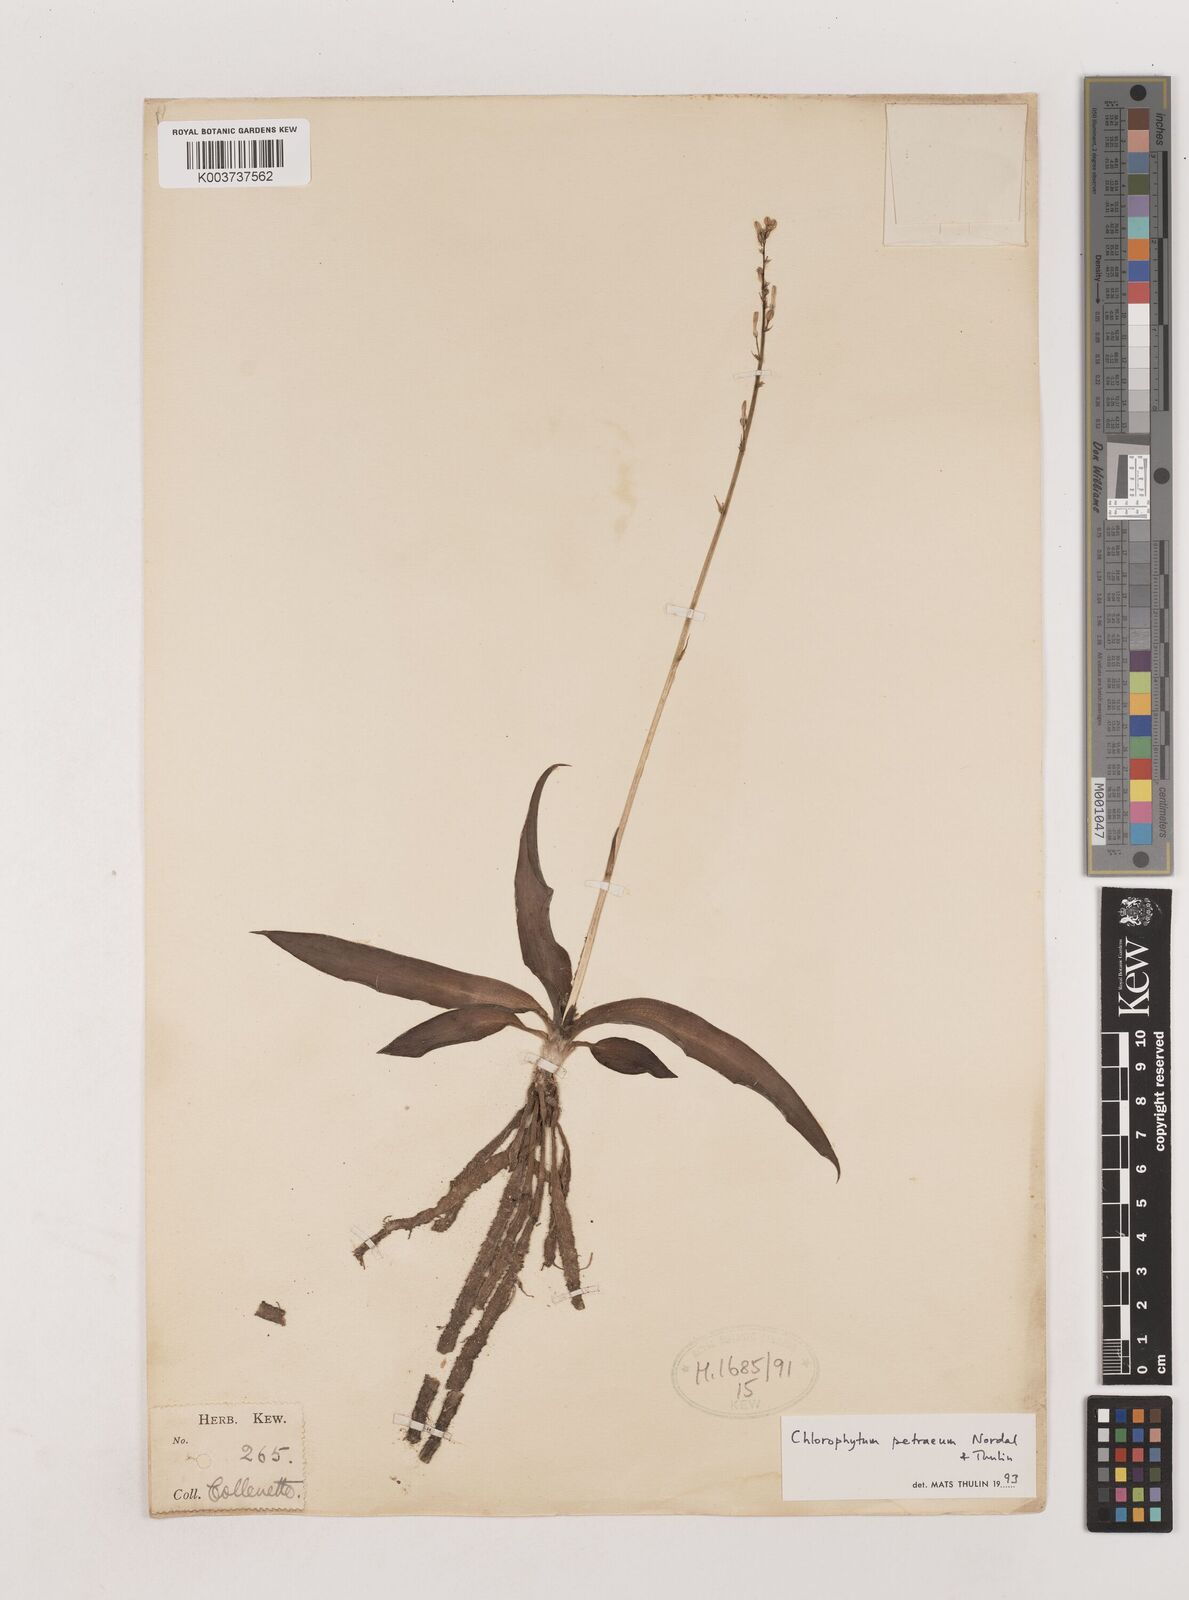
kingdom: Plantae
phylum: Tracheophyta
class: Liliopsida
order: Asparagales
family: Asparagaceae
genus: Chlorophytum
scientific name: Chlorophytum petraeum
